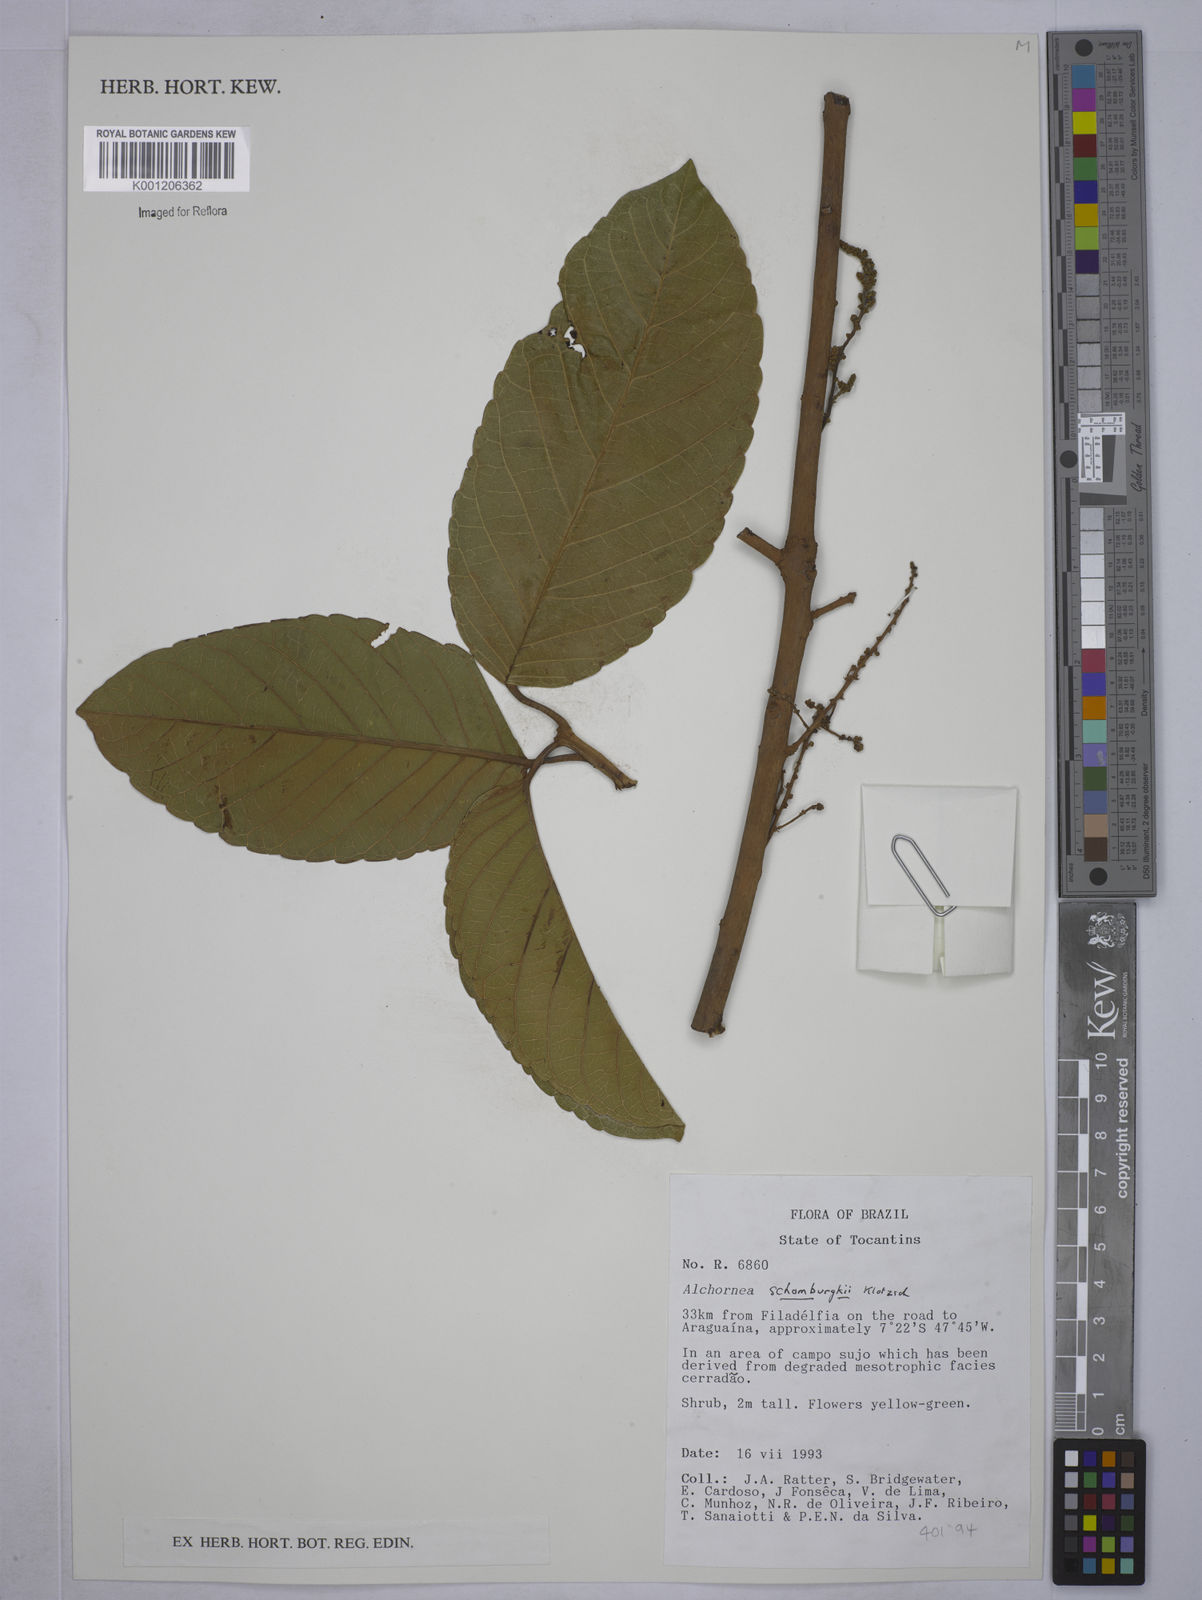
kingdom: Plantae
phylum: Tracheophyta
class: Magnoliopsida
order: Malpighiales
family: Euphorbiaceae
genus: Alchornea
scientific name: Alchornea discolor
